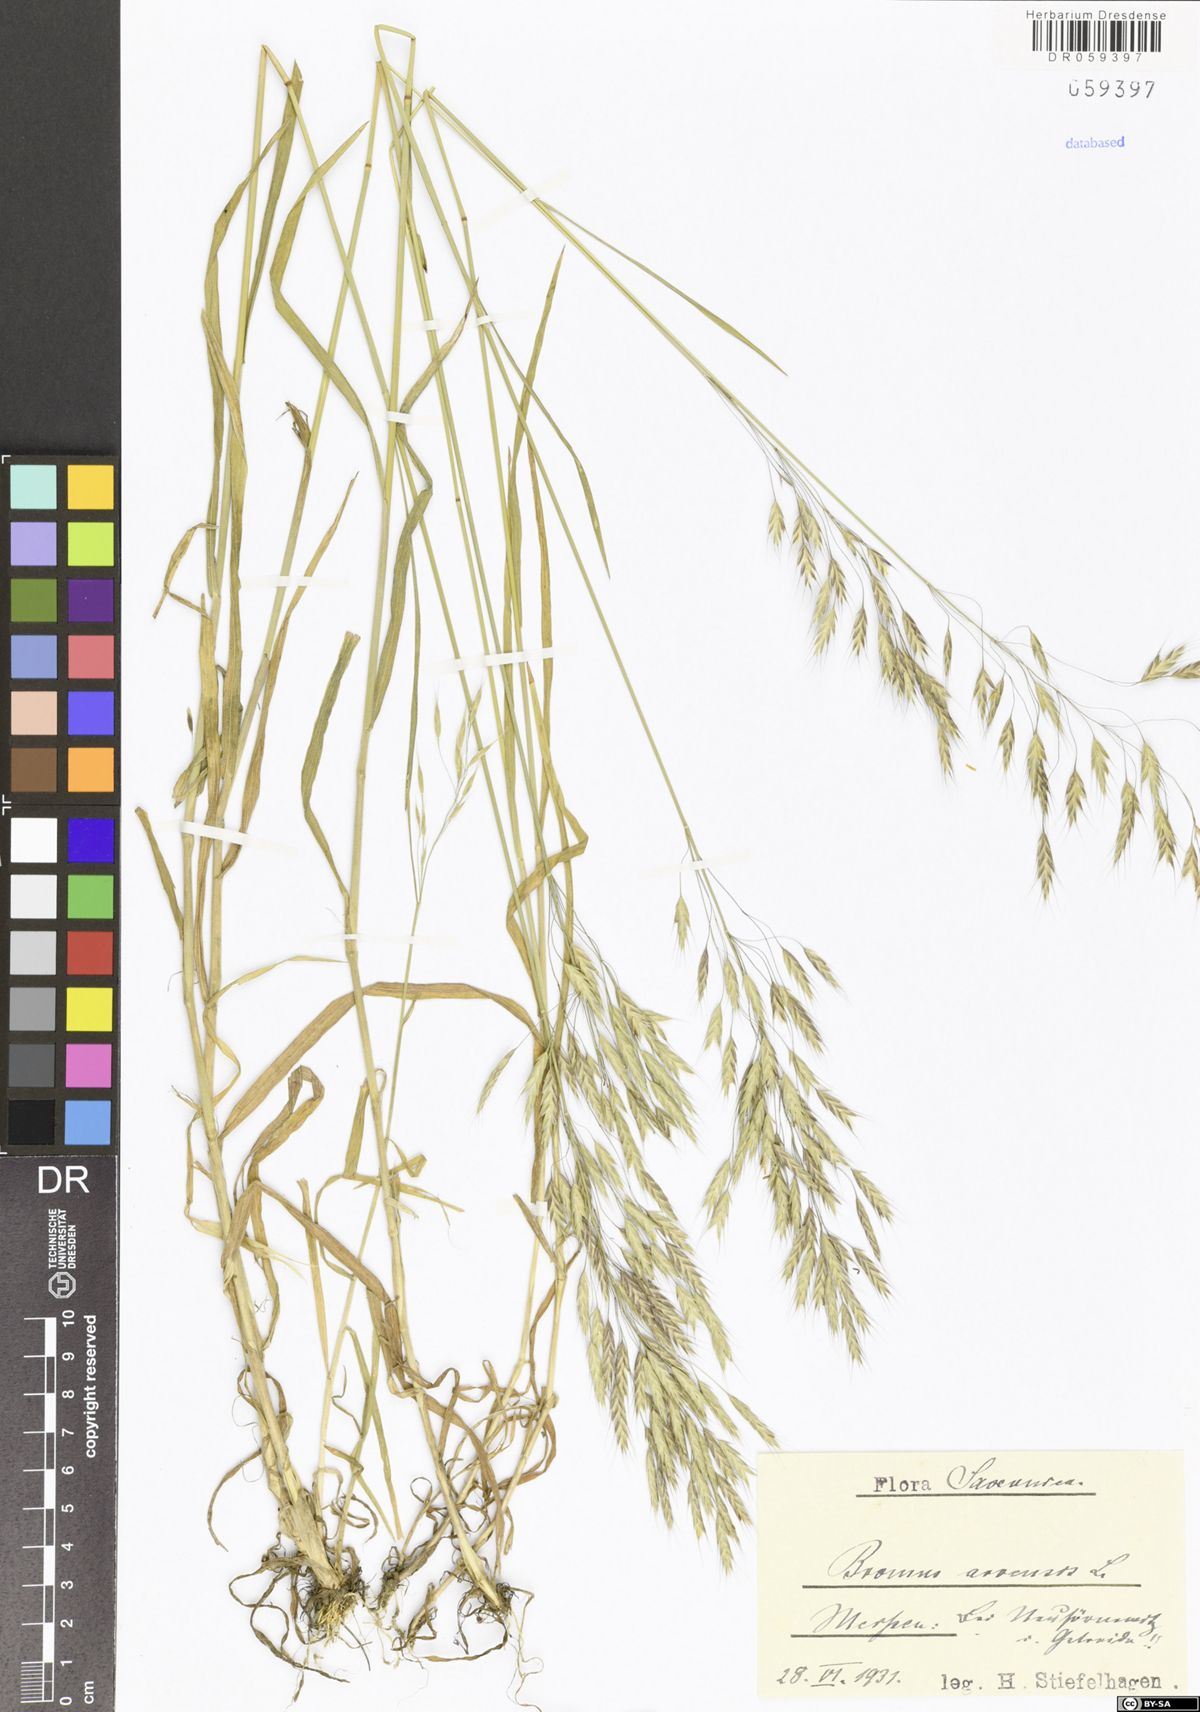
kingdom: Plantae
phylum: Tracheophyta
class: Liliopsida
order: Poales
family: Poaceae
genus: Bromus
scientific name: Bromus arvensis
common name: Field brome
